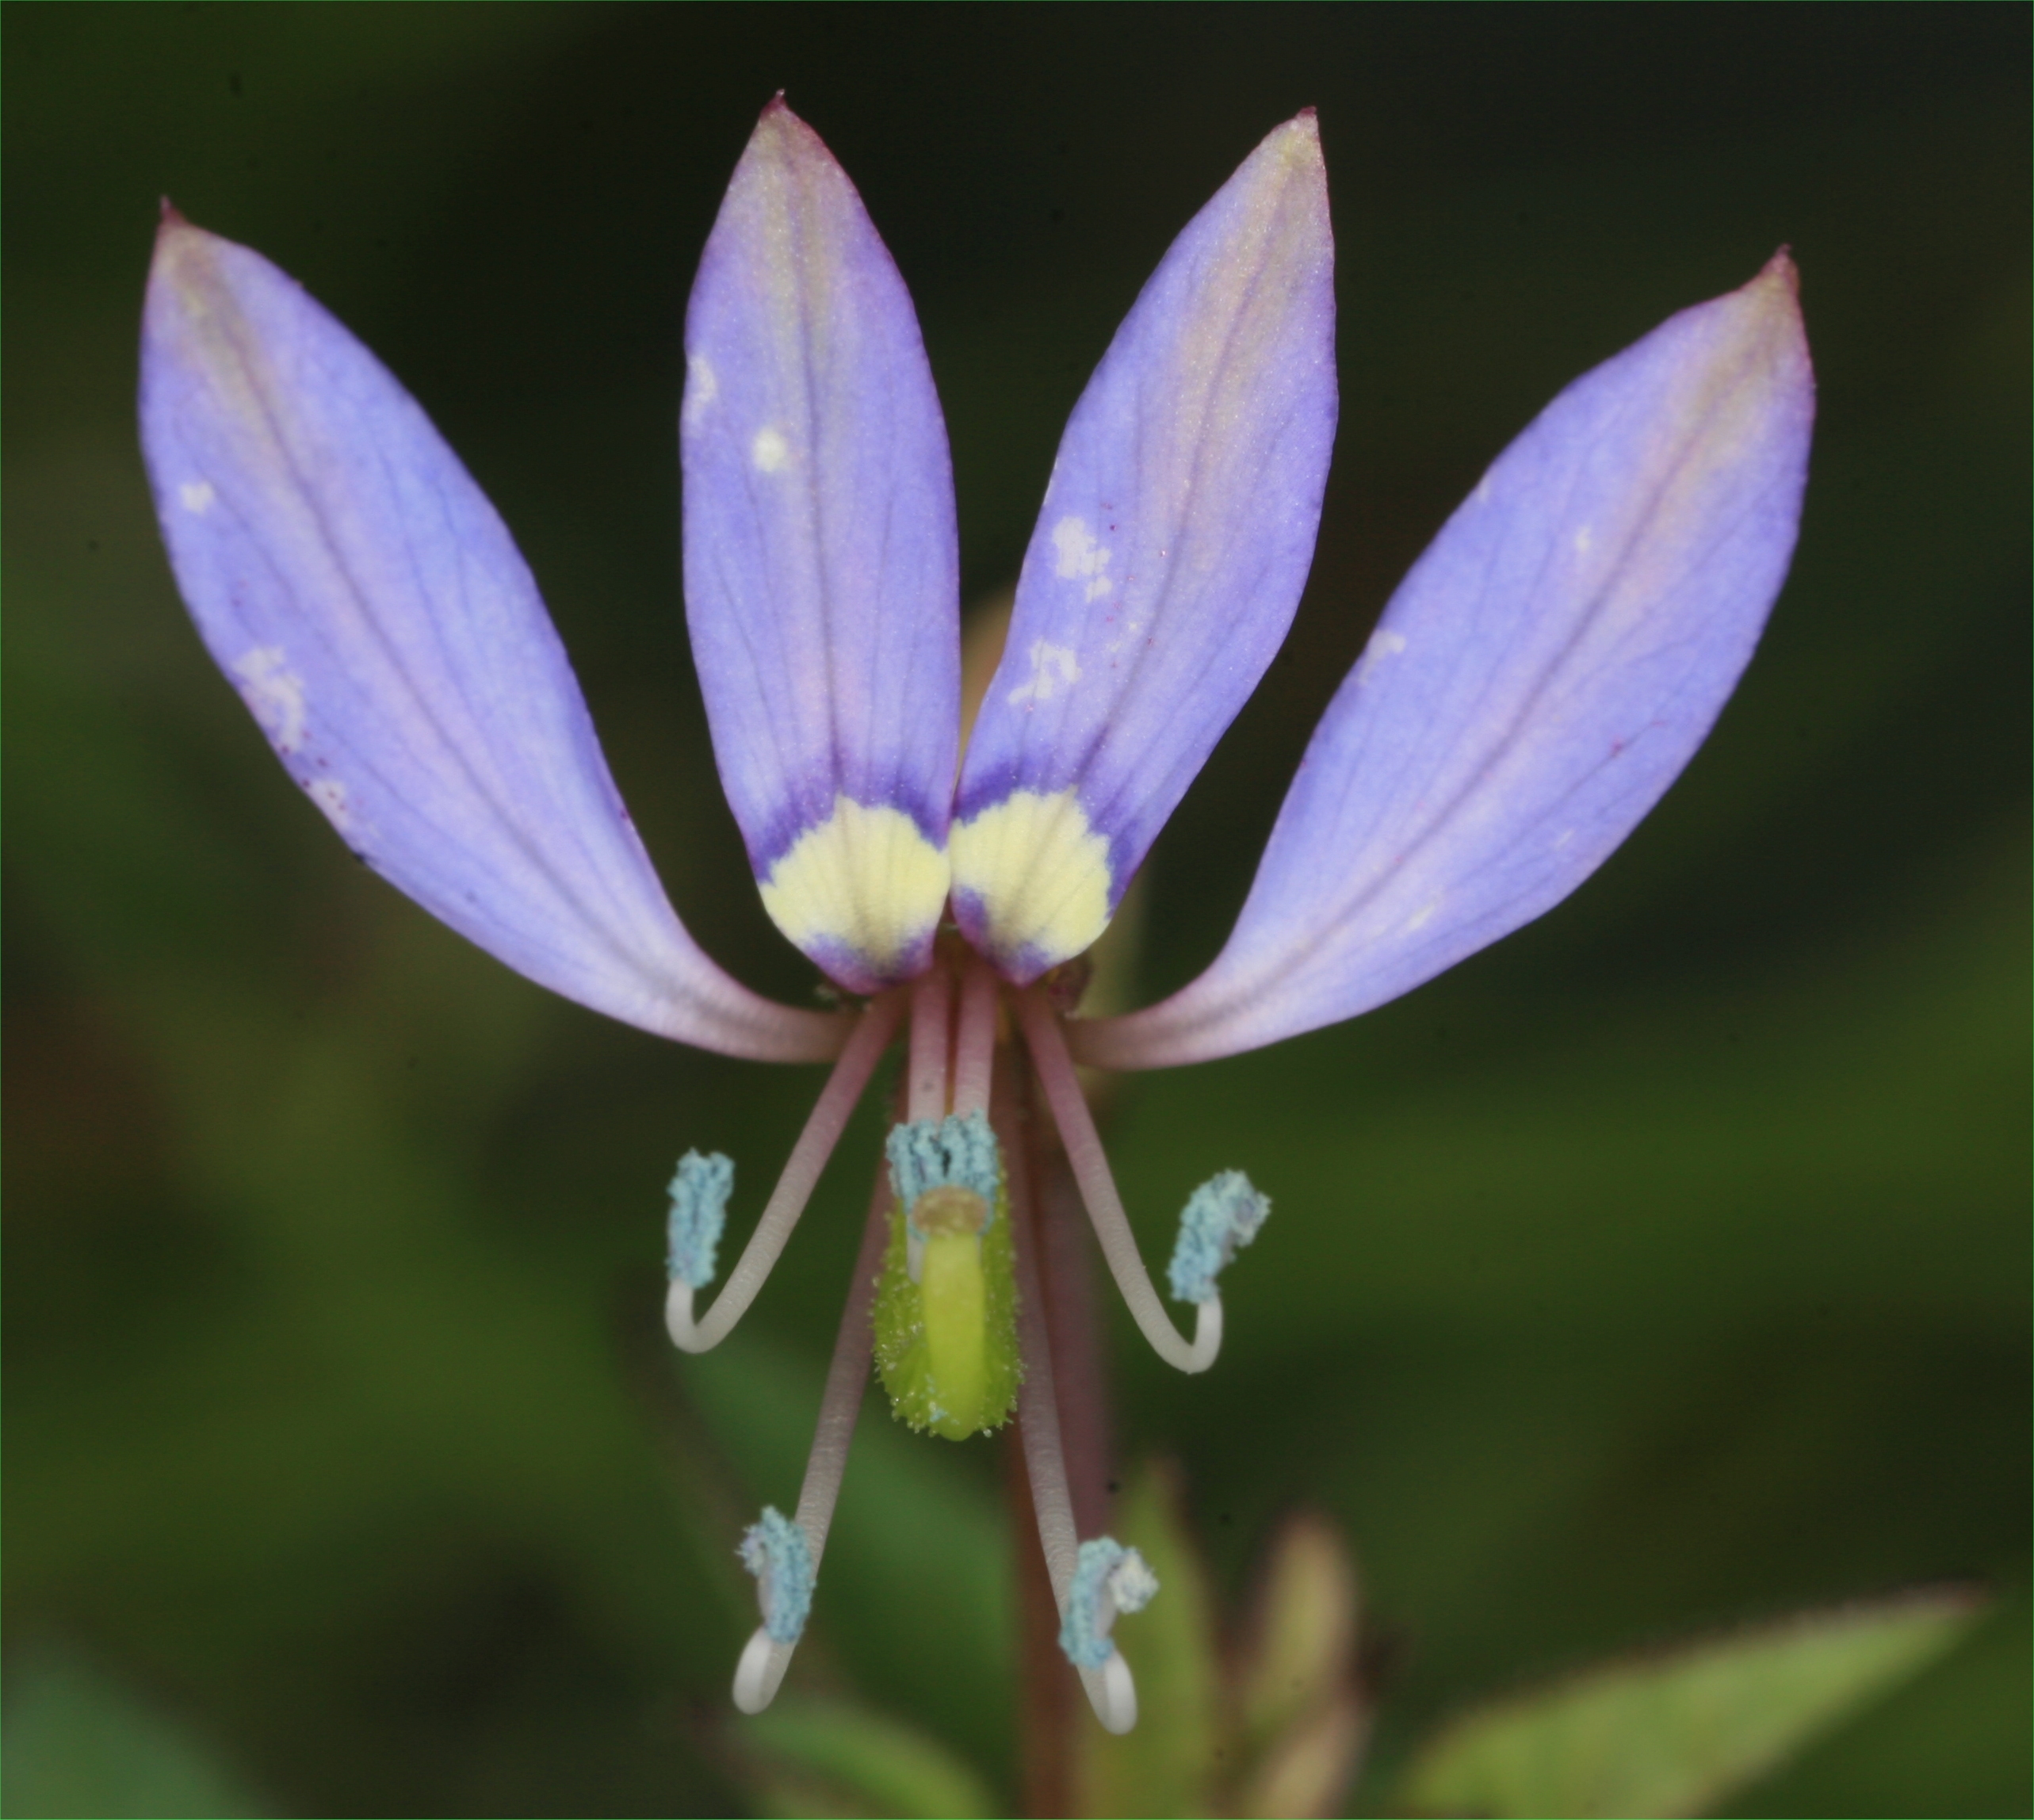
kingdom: Plantae
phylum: Tracheophyta
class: Magnoliopsida
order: Brassicales
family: Cleomaceae
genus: Sieruela
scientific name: Sieruela rutidosperma
